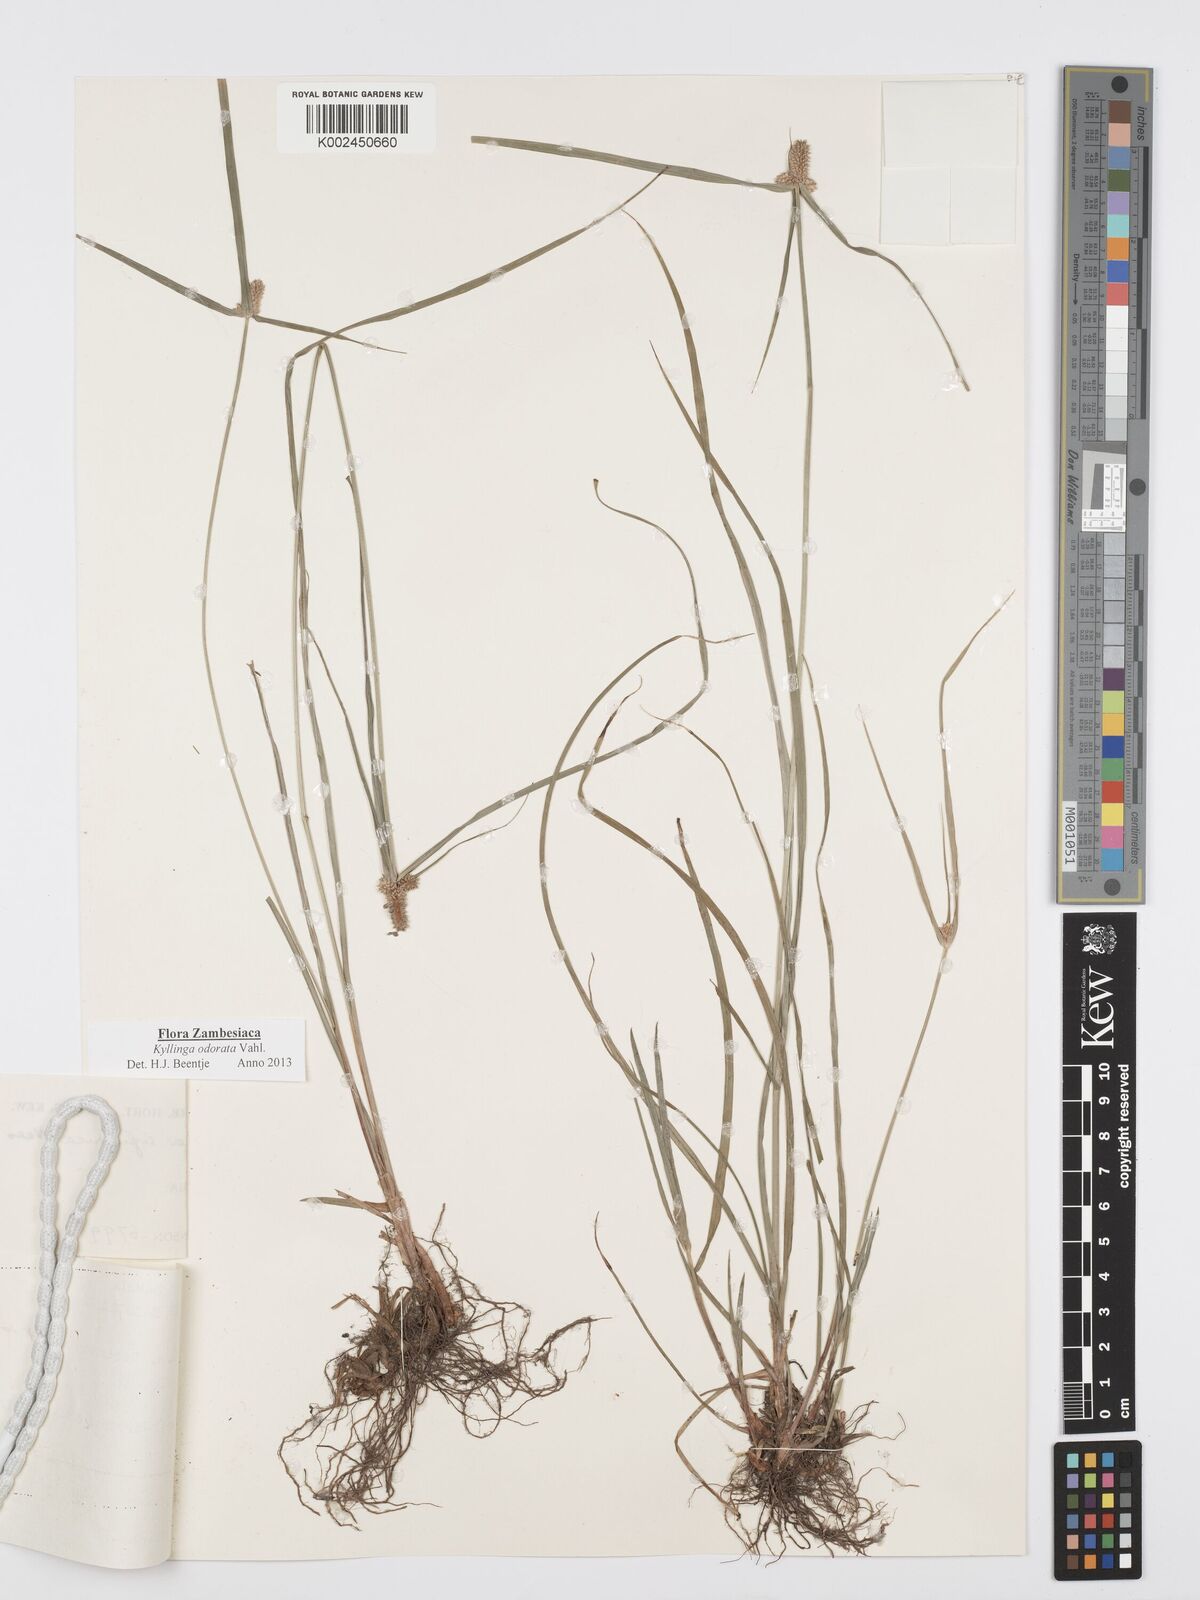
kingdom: Plantae
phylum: Tracheophyta
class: Liliopsida
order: Poales
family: Cyperaceae
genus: Cyperus
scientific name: Cyperus
